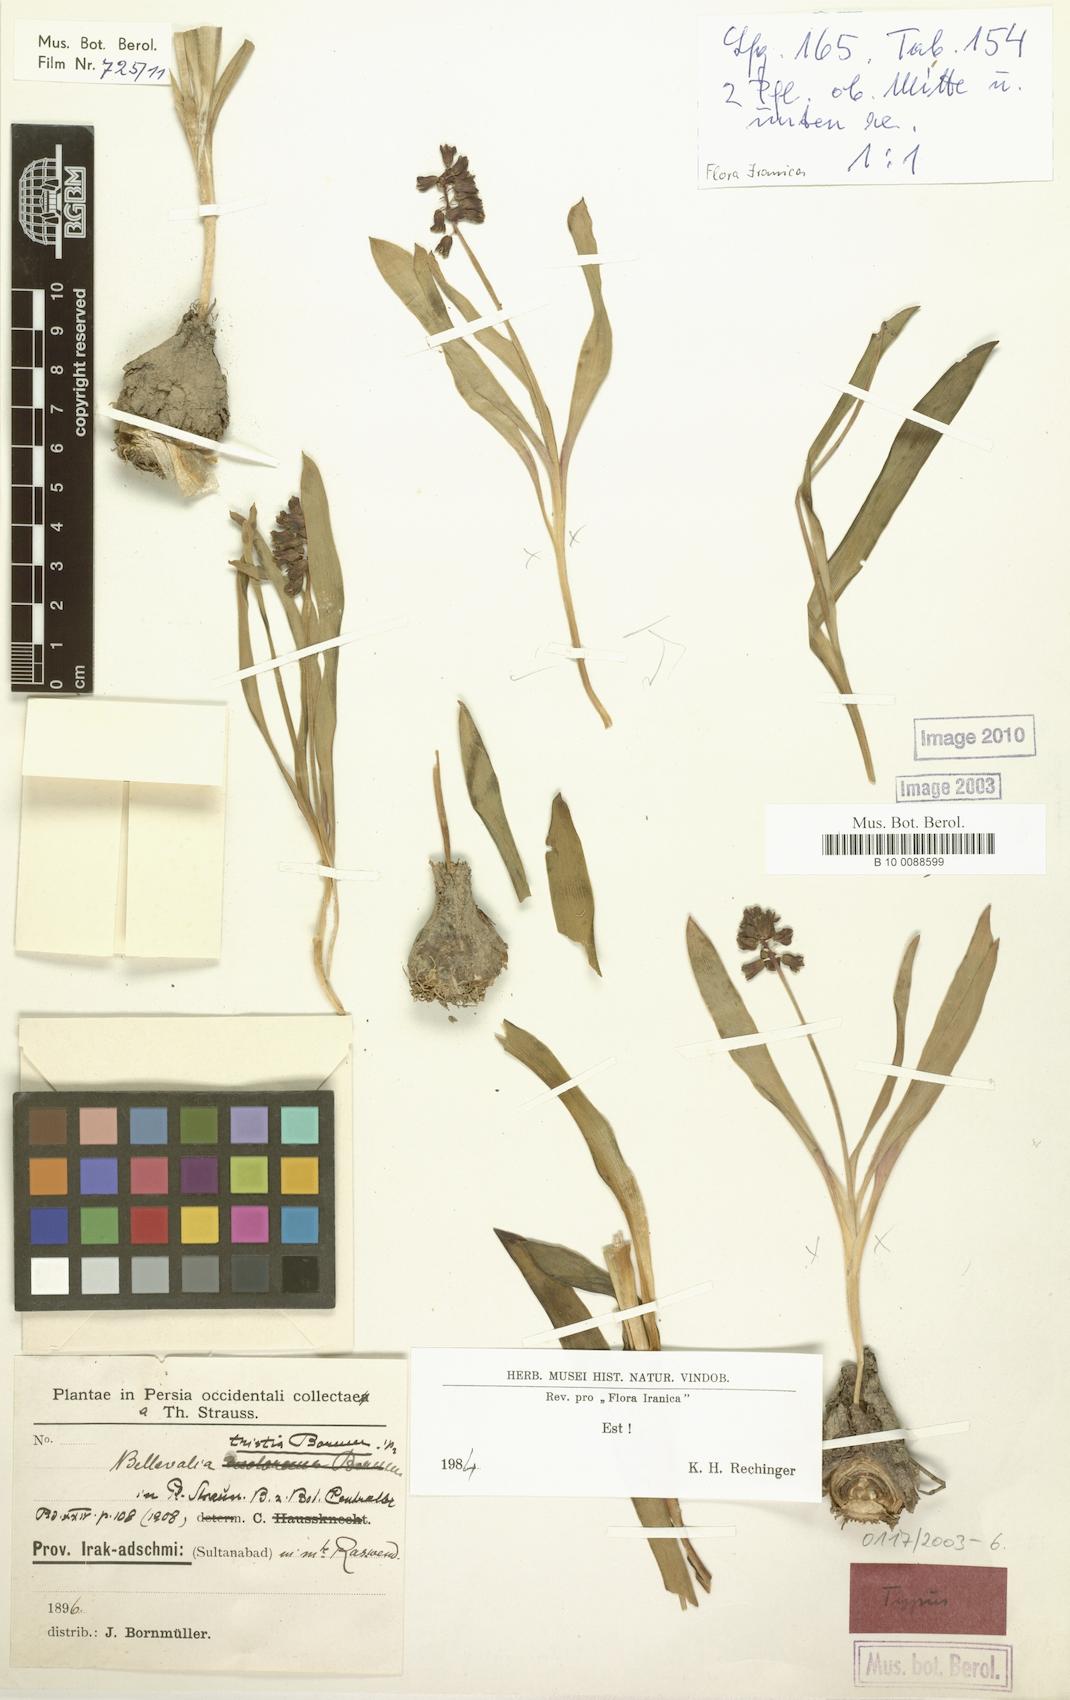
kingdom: Plantae
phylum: Tracheophyta
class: Liliopsida
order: Asparagales
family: Asparagaceae
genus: Bellevalia
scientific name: Bellevalia tristis
